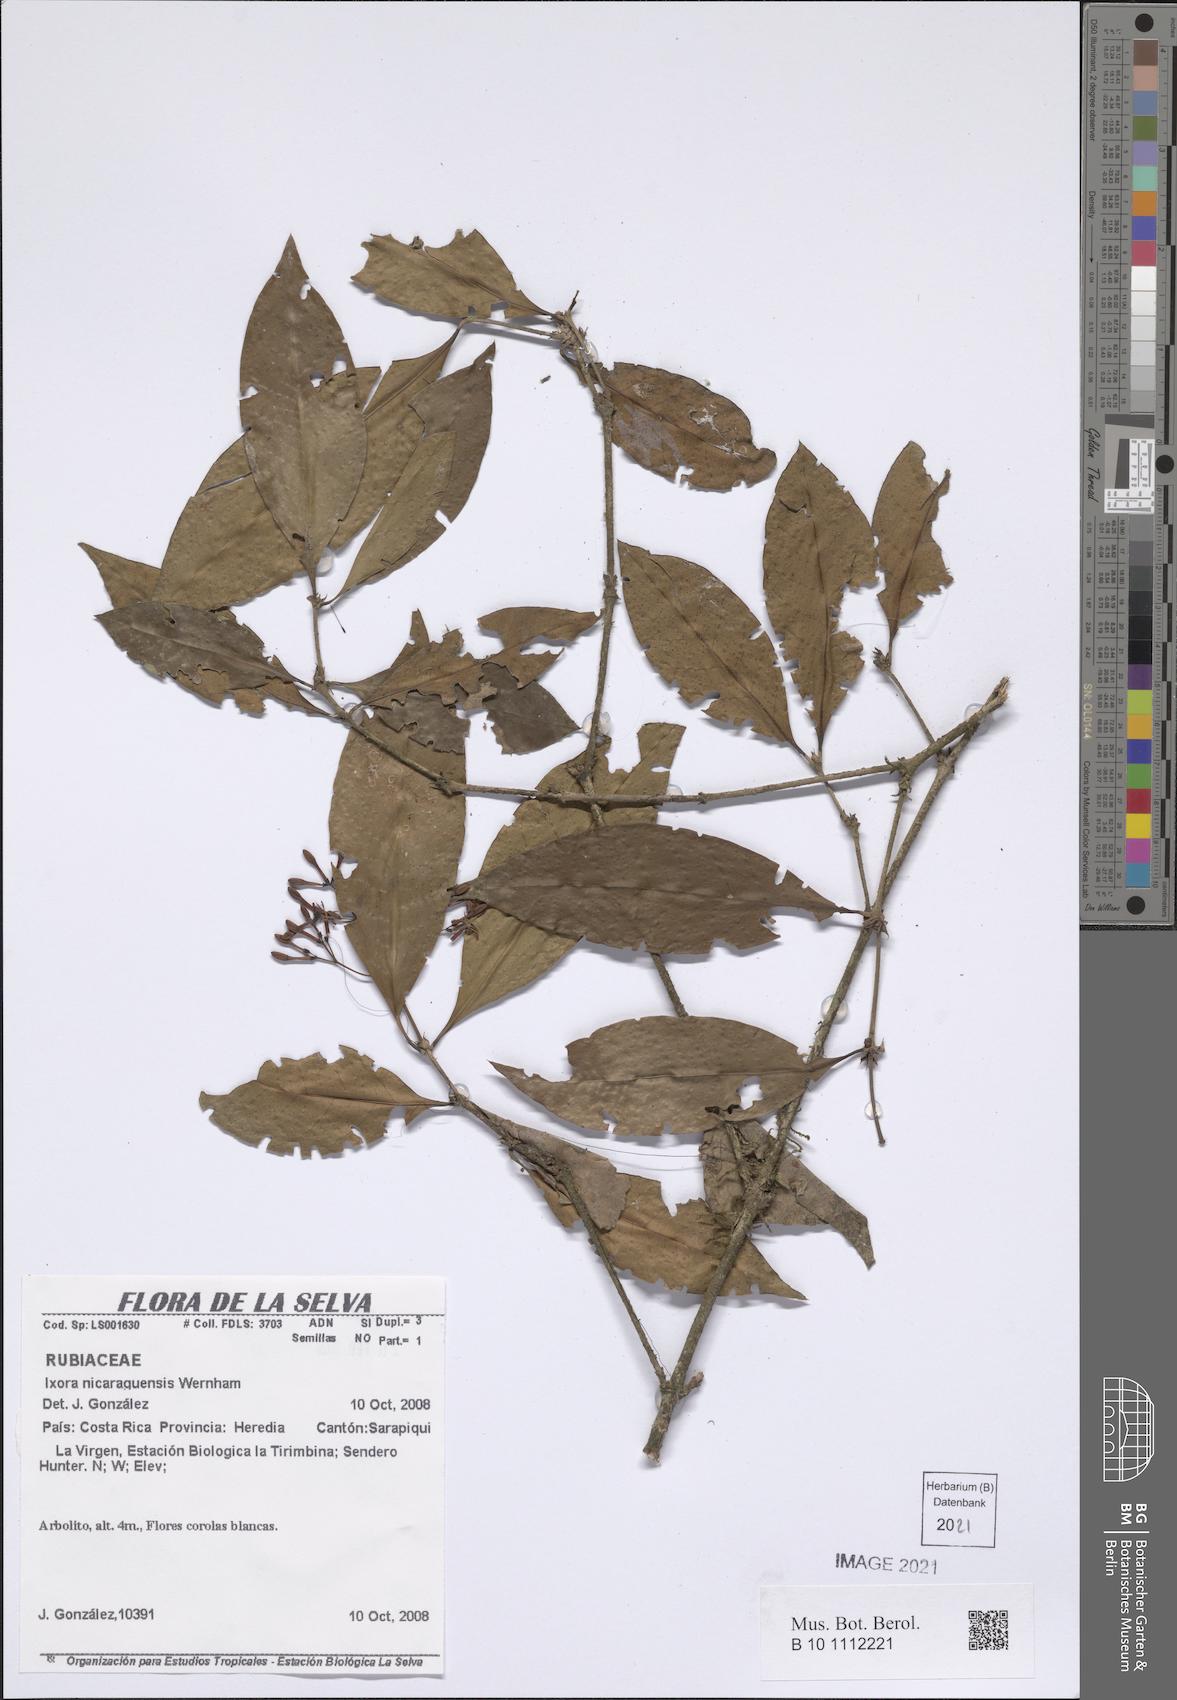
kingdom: Plantae
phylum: Tracheophyta
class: Magnoliopsida
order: Gentianales
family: Rubiaceae
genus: Ixora
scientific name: Ixora nicaraguensis
